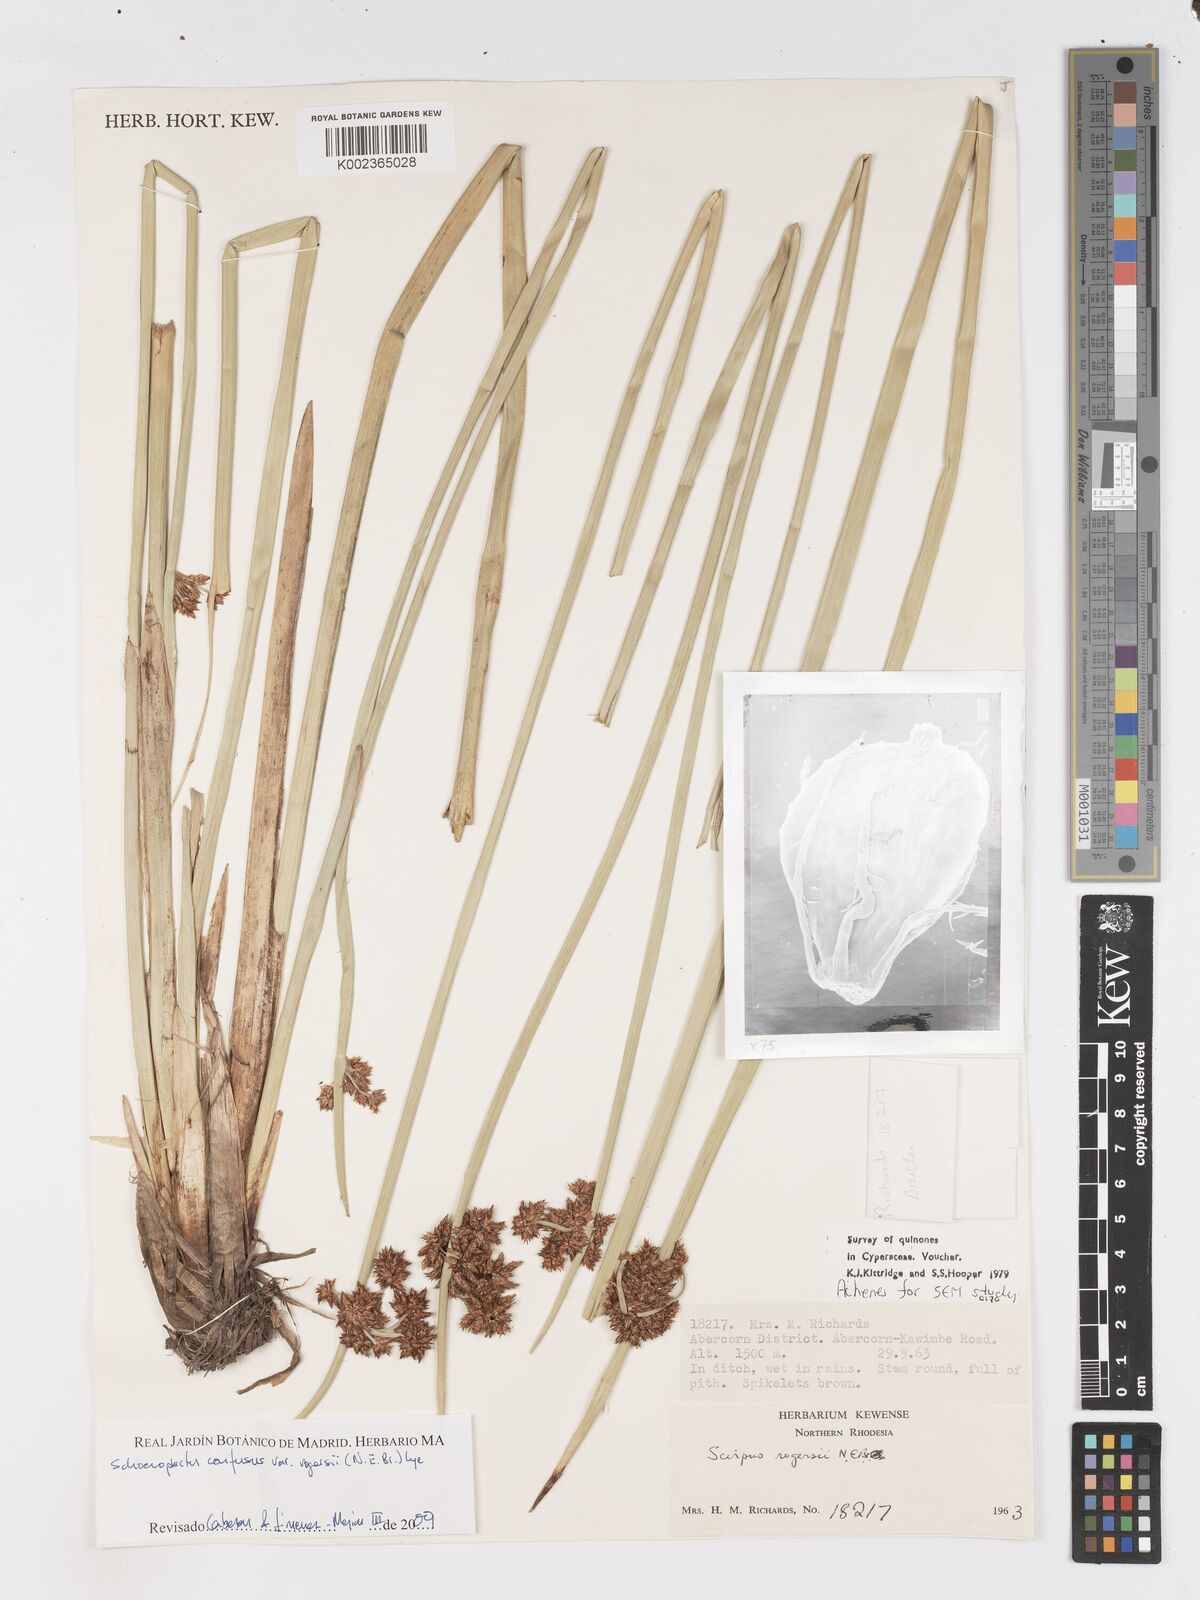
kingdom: Plantae
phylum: Tracheophyta
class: Liliopsida
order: Poales
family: Cyperaceae
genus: Schoenoplectiella
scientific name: Schoenoplectiella rogersii
